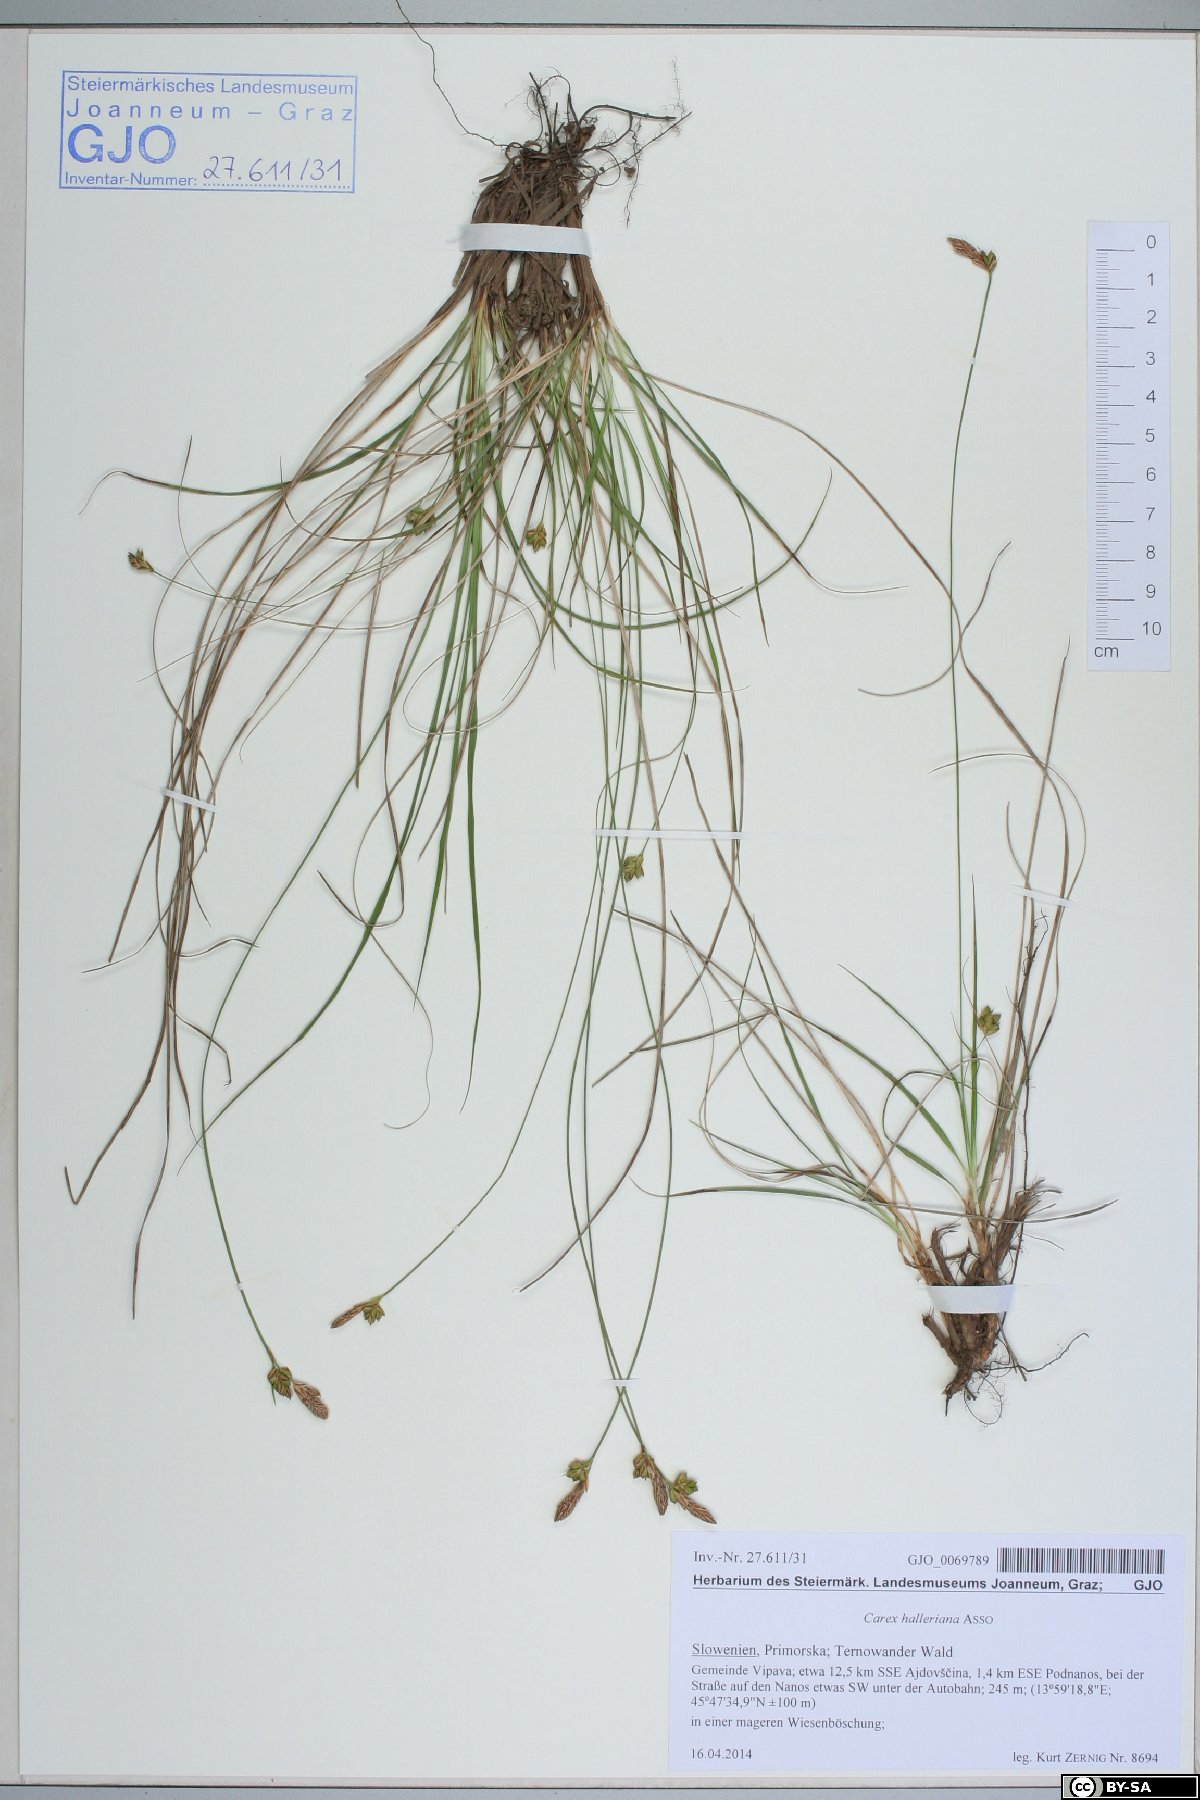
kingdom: Plantae
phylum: Tracheophyta
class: Liliopsida
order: Poales
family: Cyperaceae
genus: Carex
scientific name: Carex halleriana
